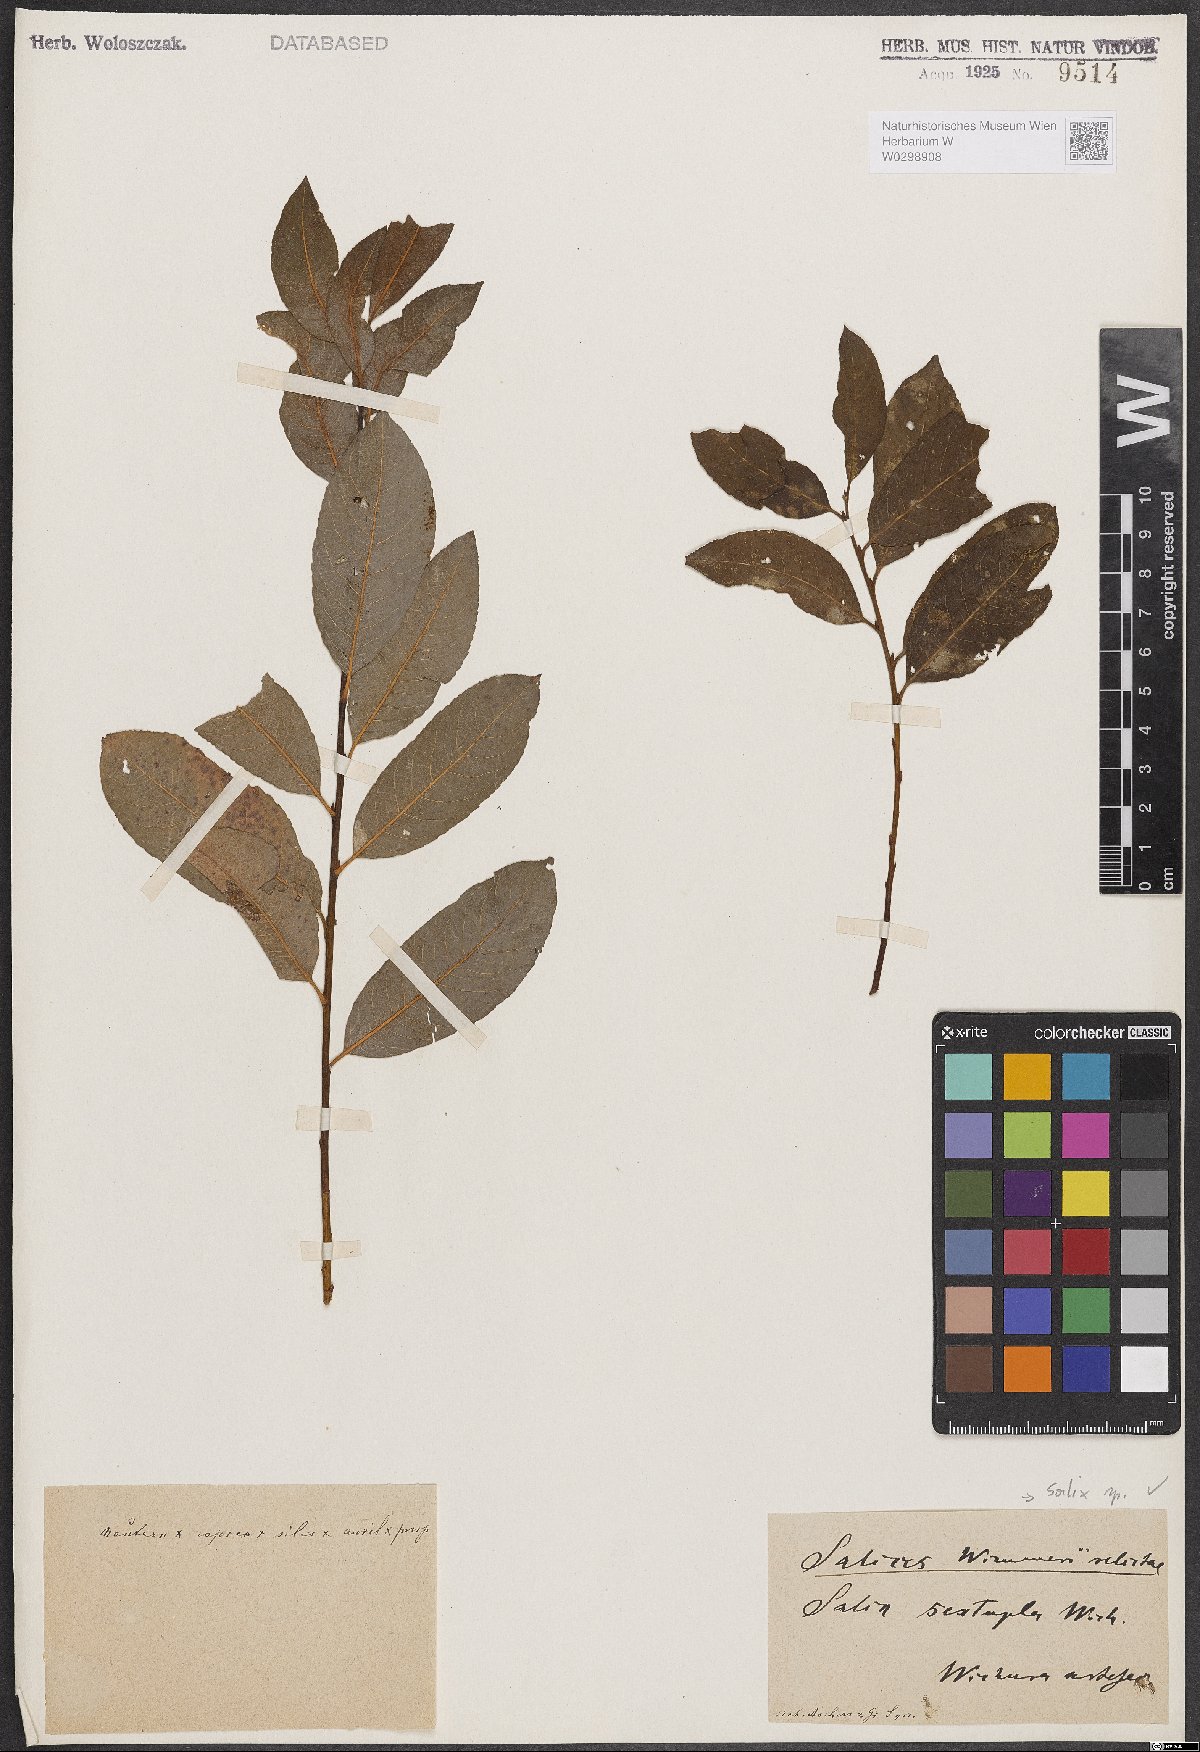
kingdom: Plantae
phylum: Tracheophyta
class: Magnoliopsida
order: Malpighiales
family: Salicaceae
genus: Salix
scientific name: Salix
